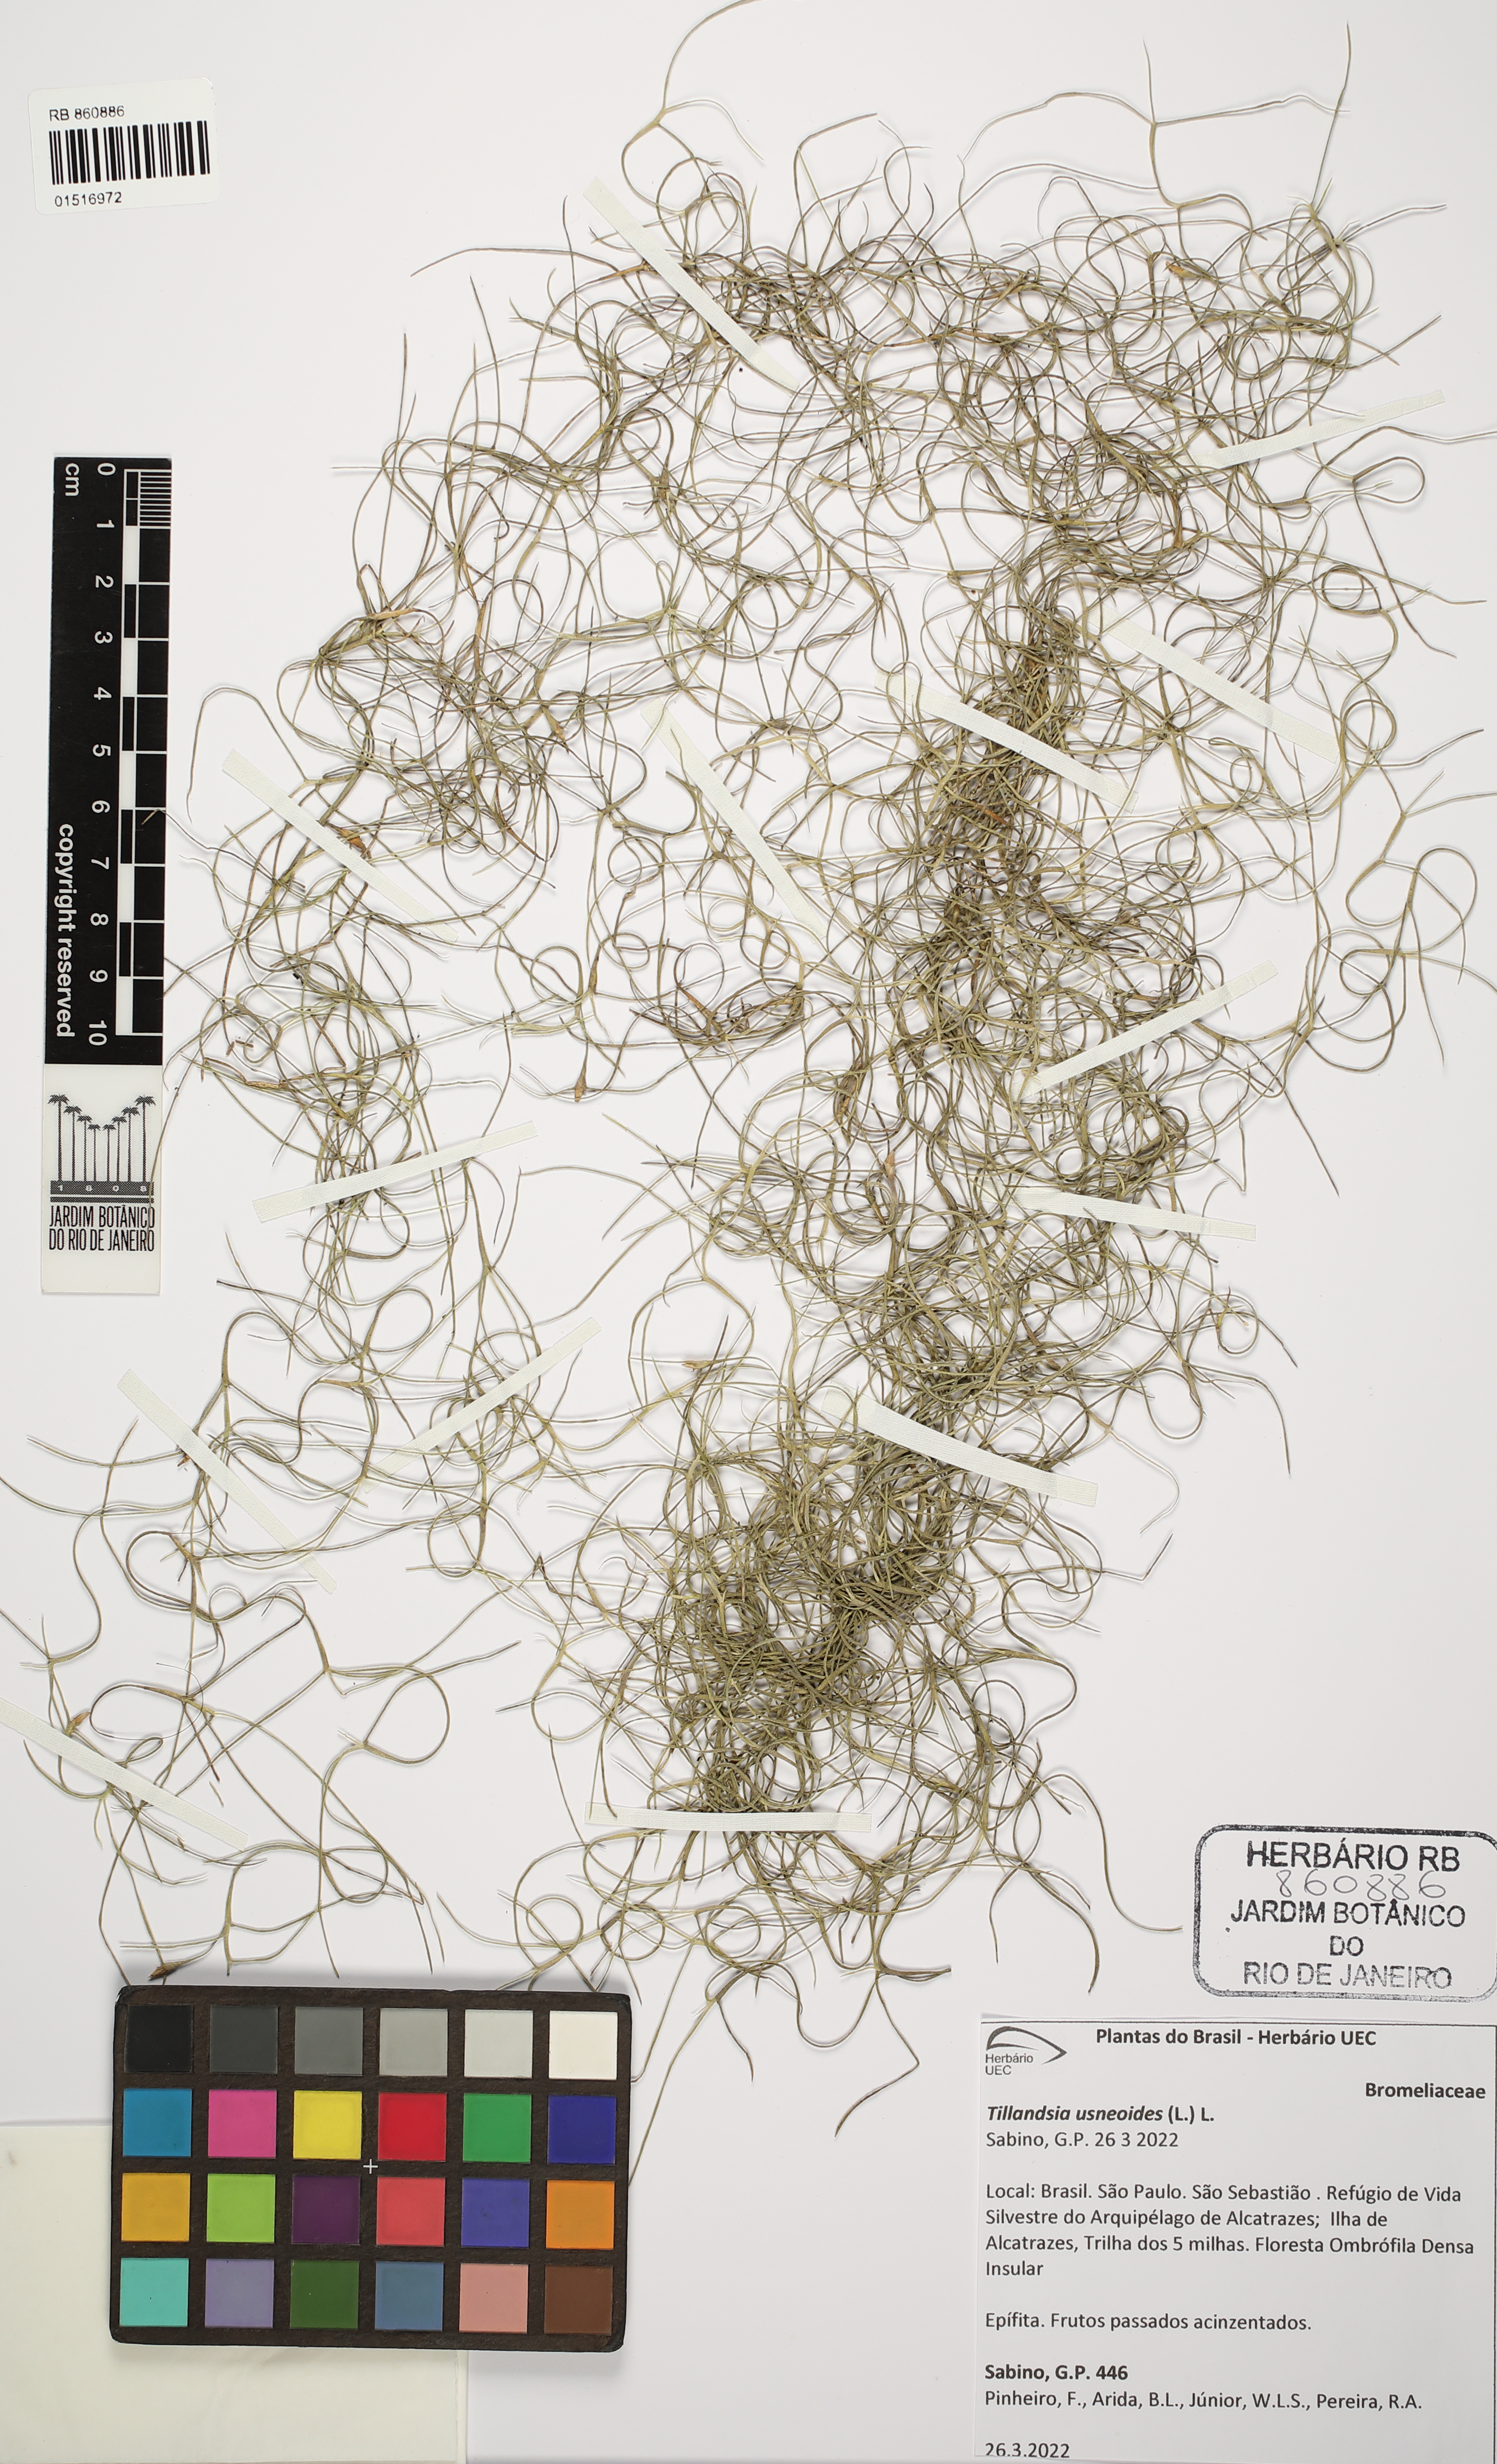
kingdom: Plantae
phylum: Tracheophyta
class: Liliopsida
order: Poales
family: Bromeliaceae
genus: Tillandsia
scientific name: Tillandsia usneoides
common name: Spanish moss
